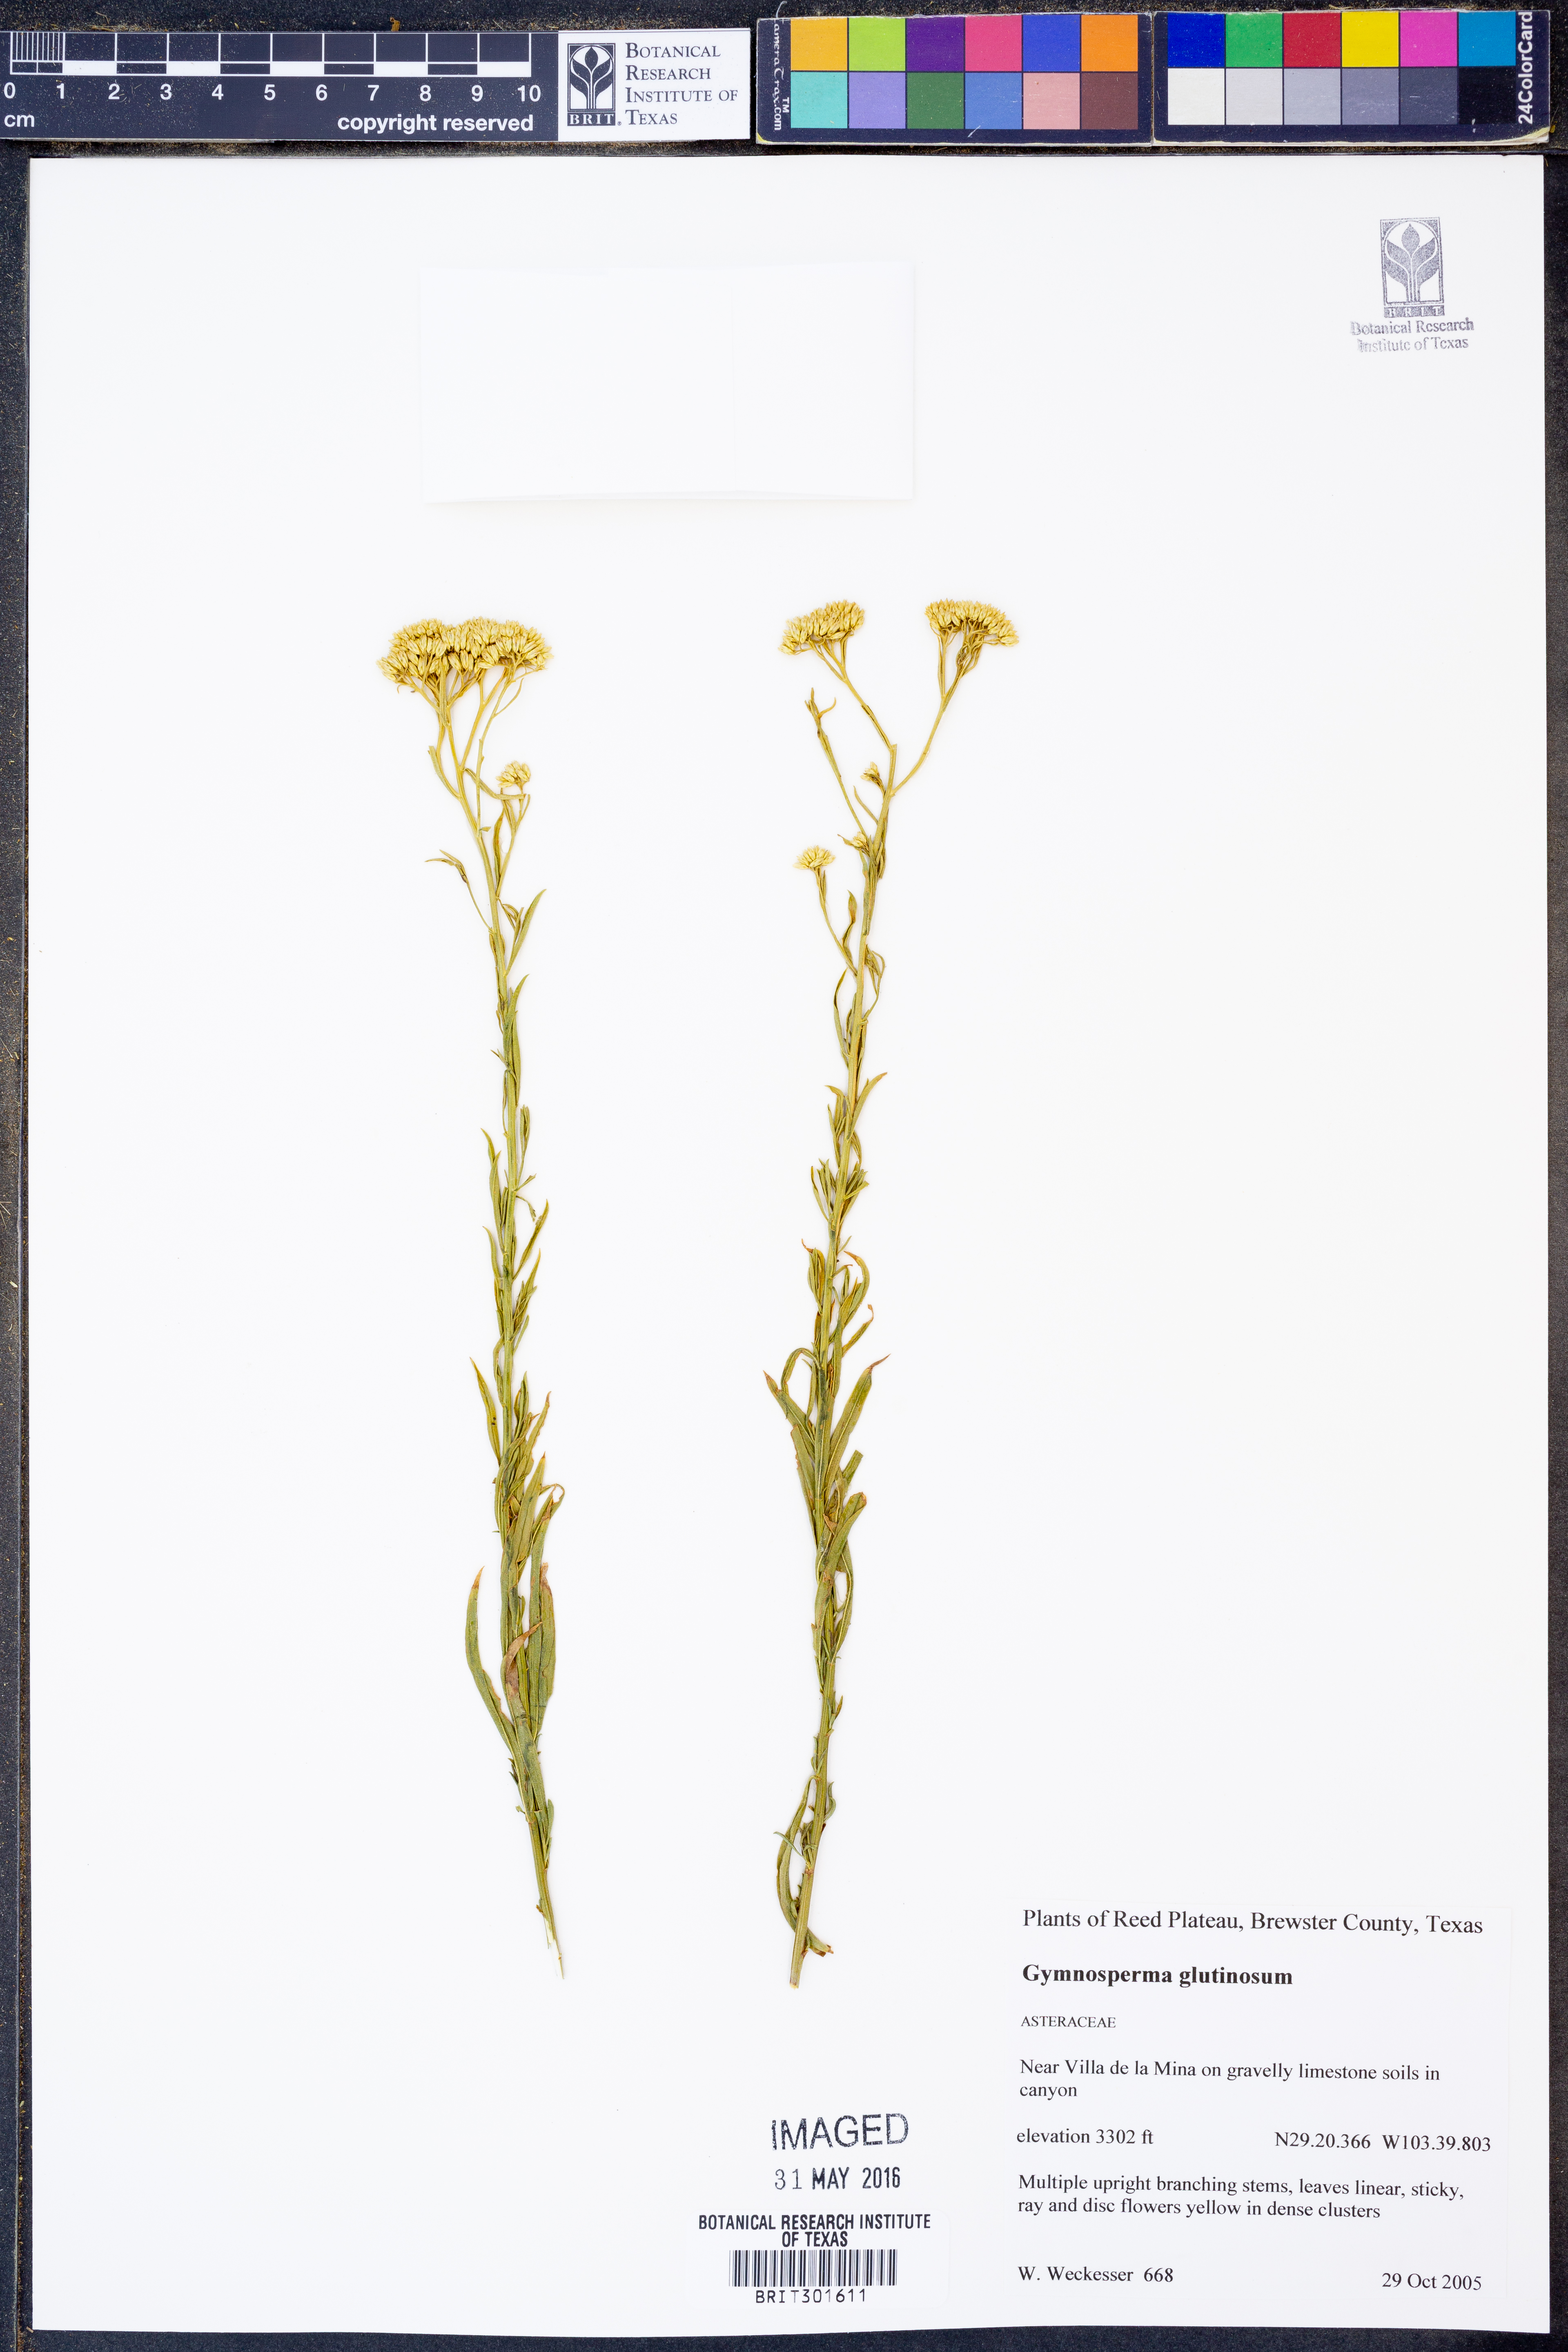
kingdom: Plantae
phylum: Tracheophyta
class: Magnoliopsida
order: Asterales
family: Asteraceae
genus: Gymnosperma
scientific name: Gymnosperma glutinosum
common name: Gumhead
